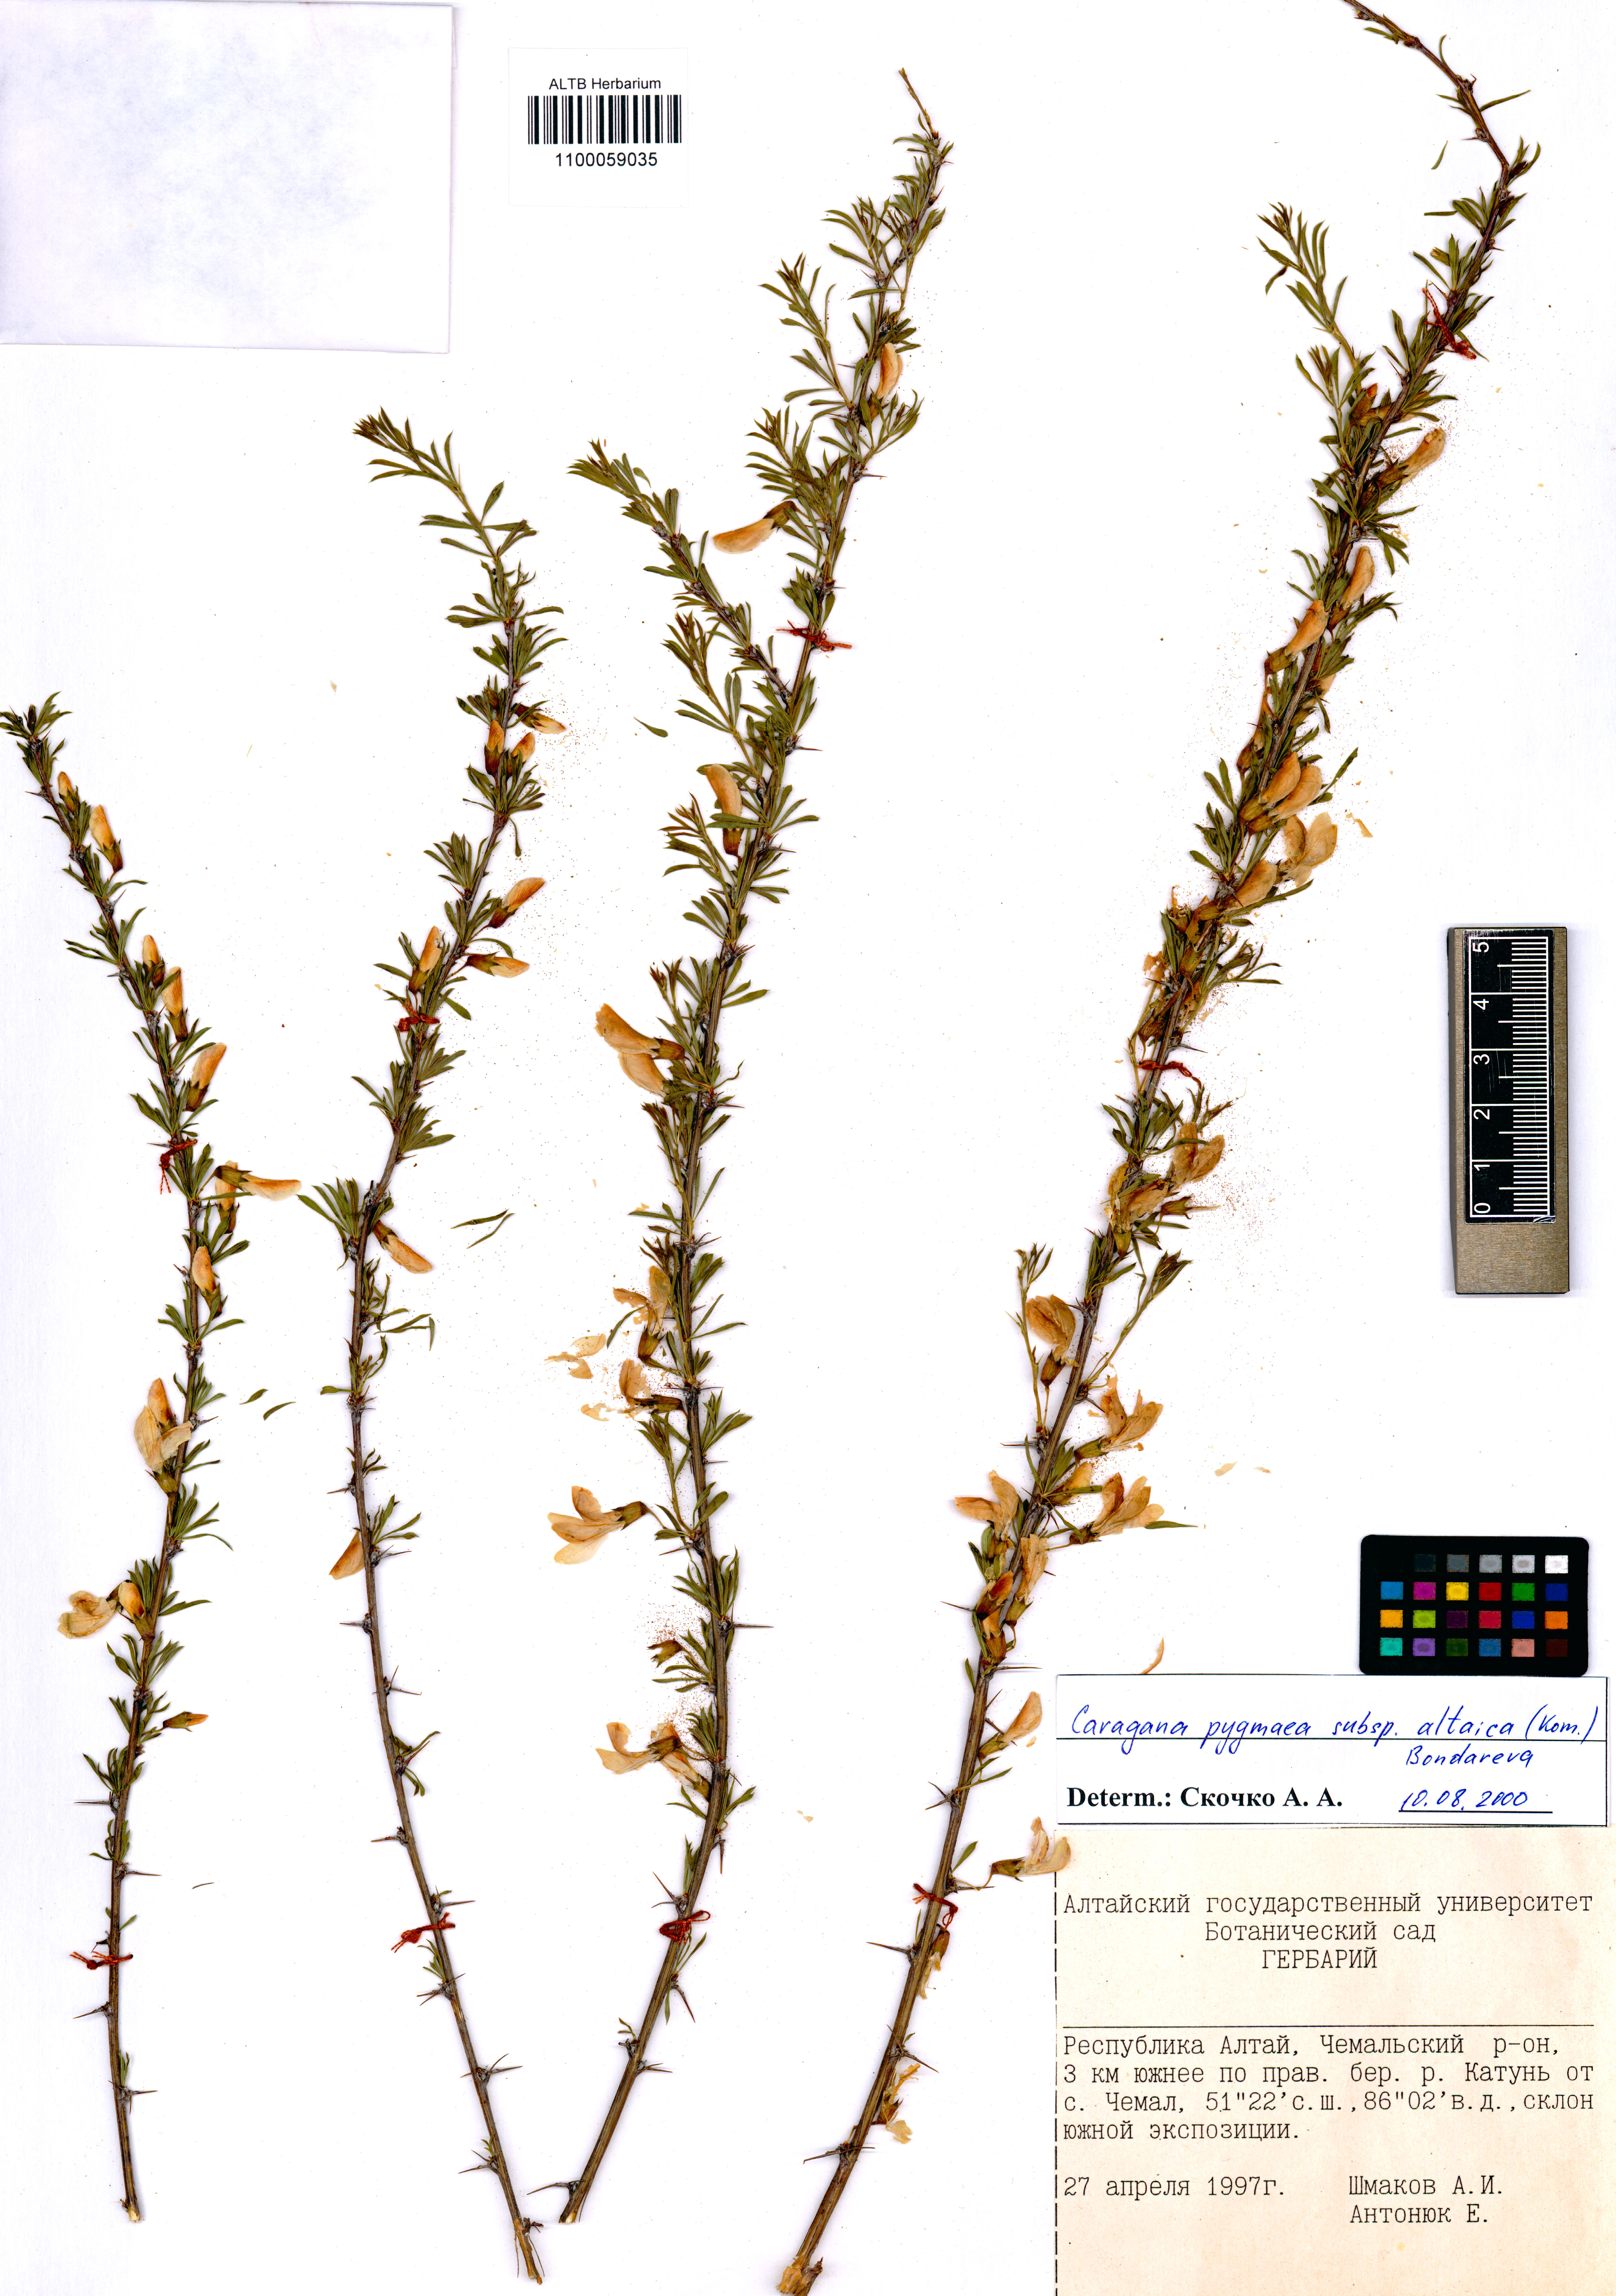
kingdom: Plantae
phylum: Tracheophyta
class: Magnoliopsida
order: Fabales
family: Fabaceae
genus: Caragana
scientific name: Caragana pygmaea
